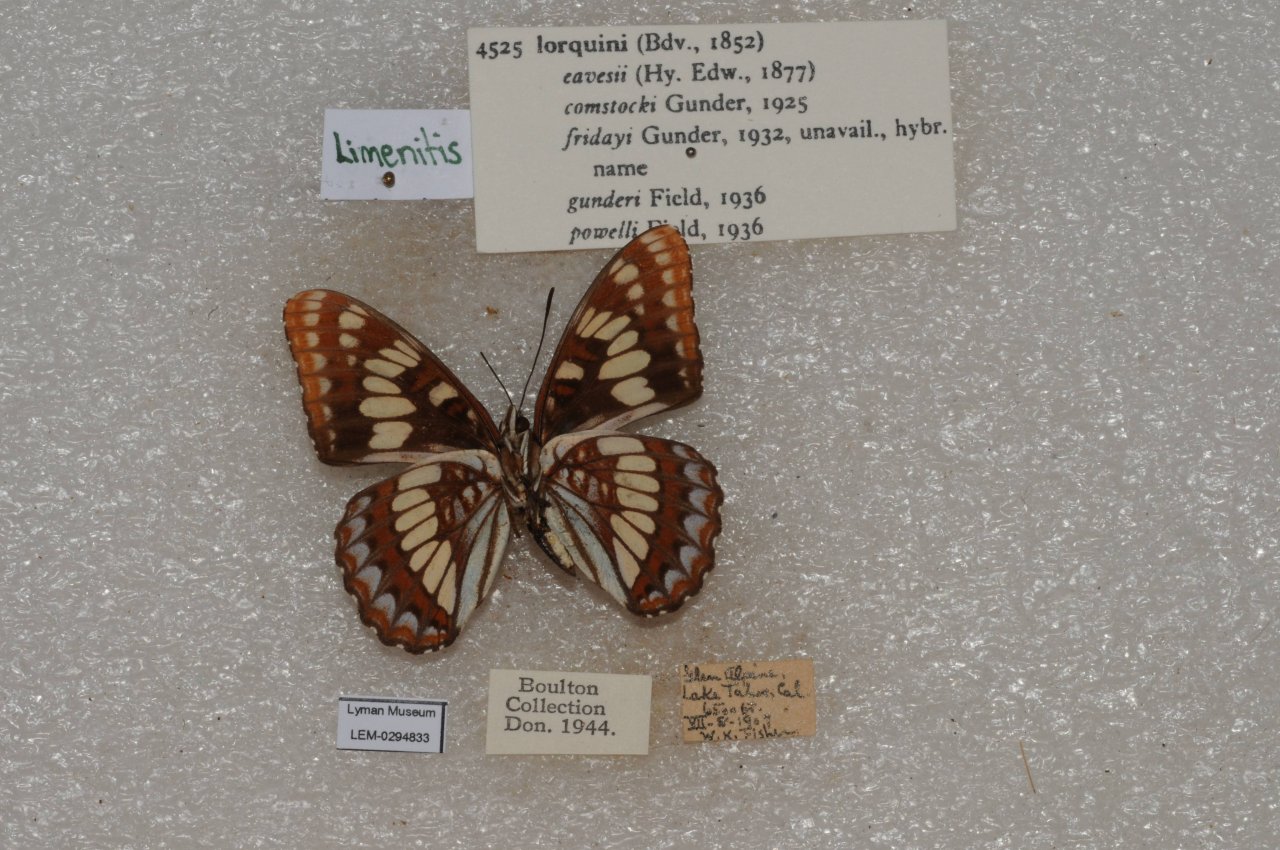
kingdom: Animalia
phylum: Arthropoda
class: Insecta
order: Lepidoptera
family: Nymphalidae
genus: Limenitis
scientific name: Limenitis lorquini
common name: Lorquin's Admiral
